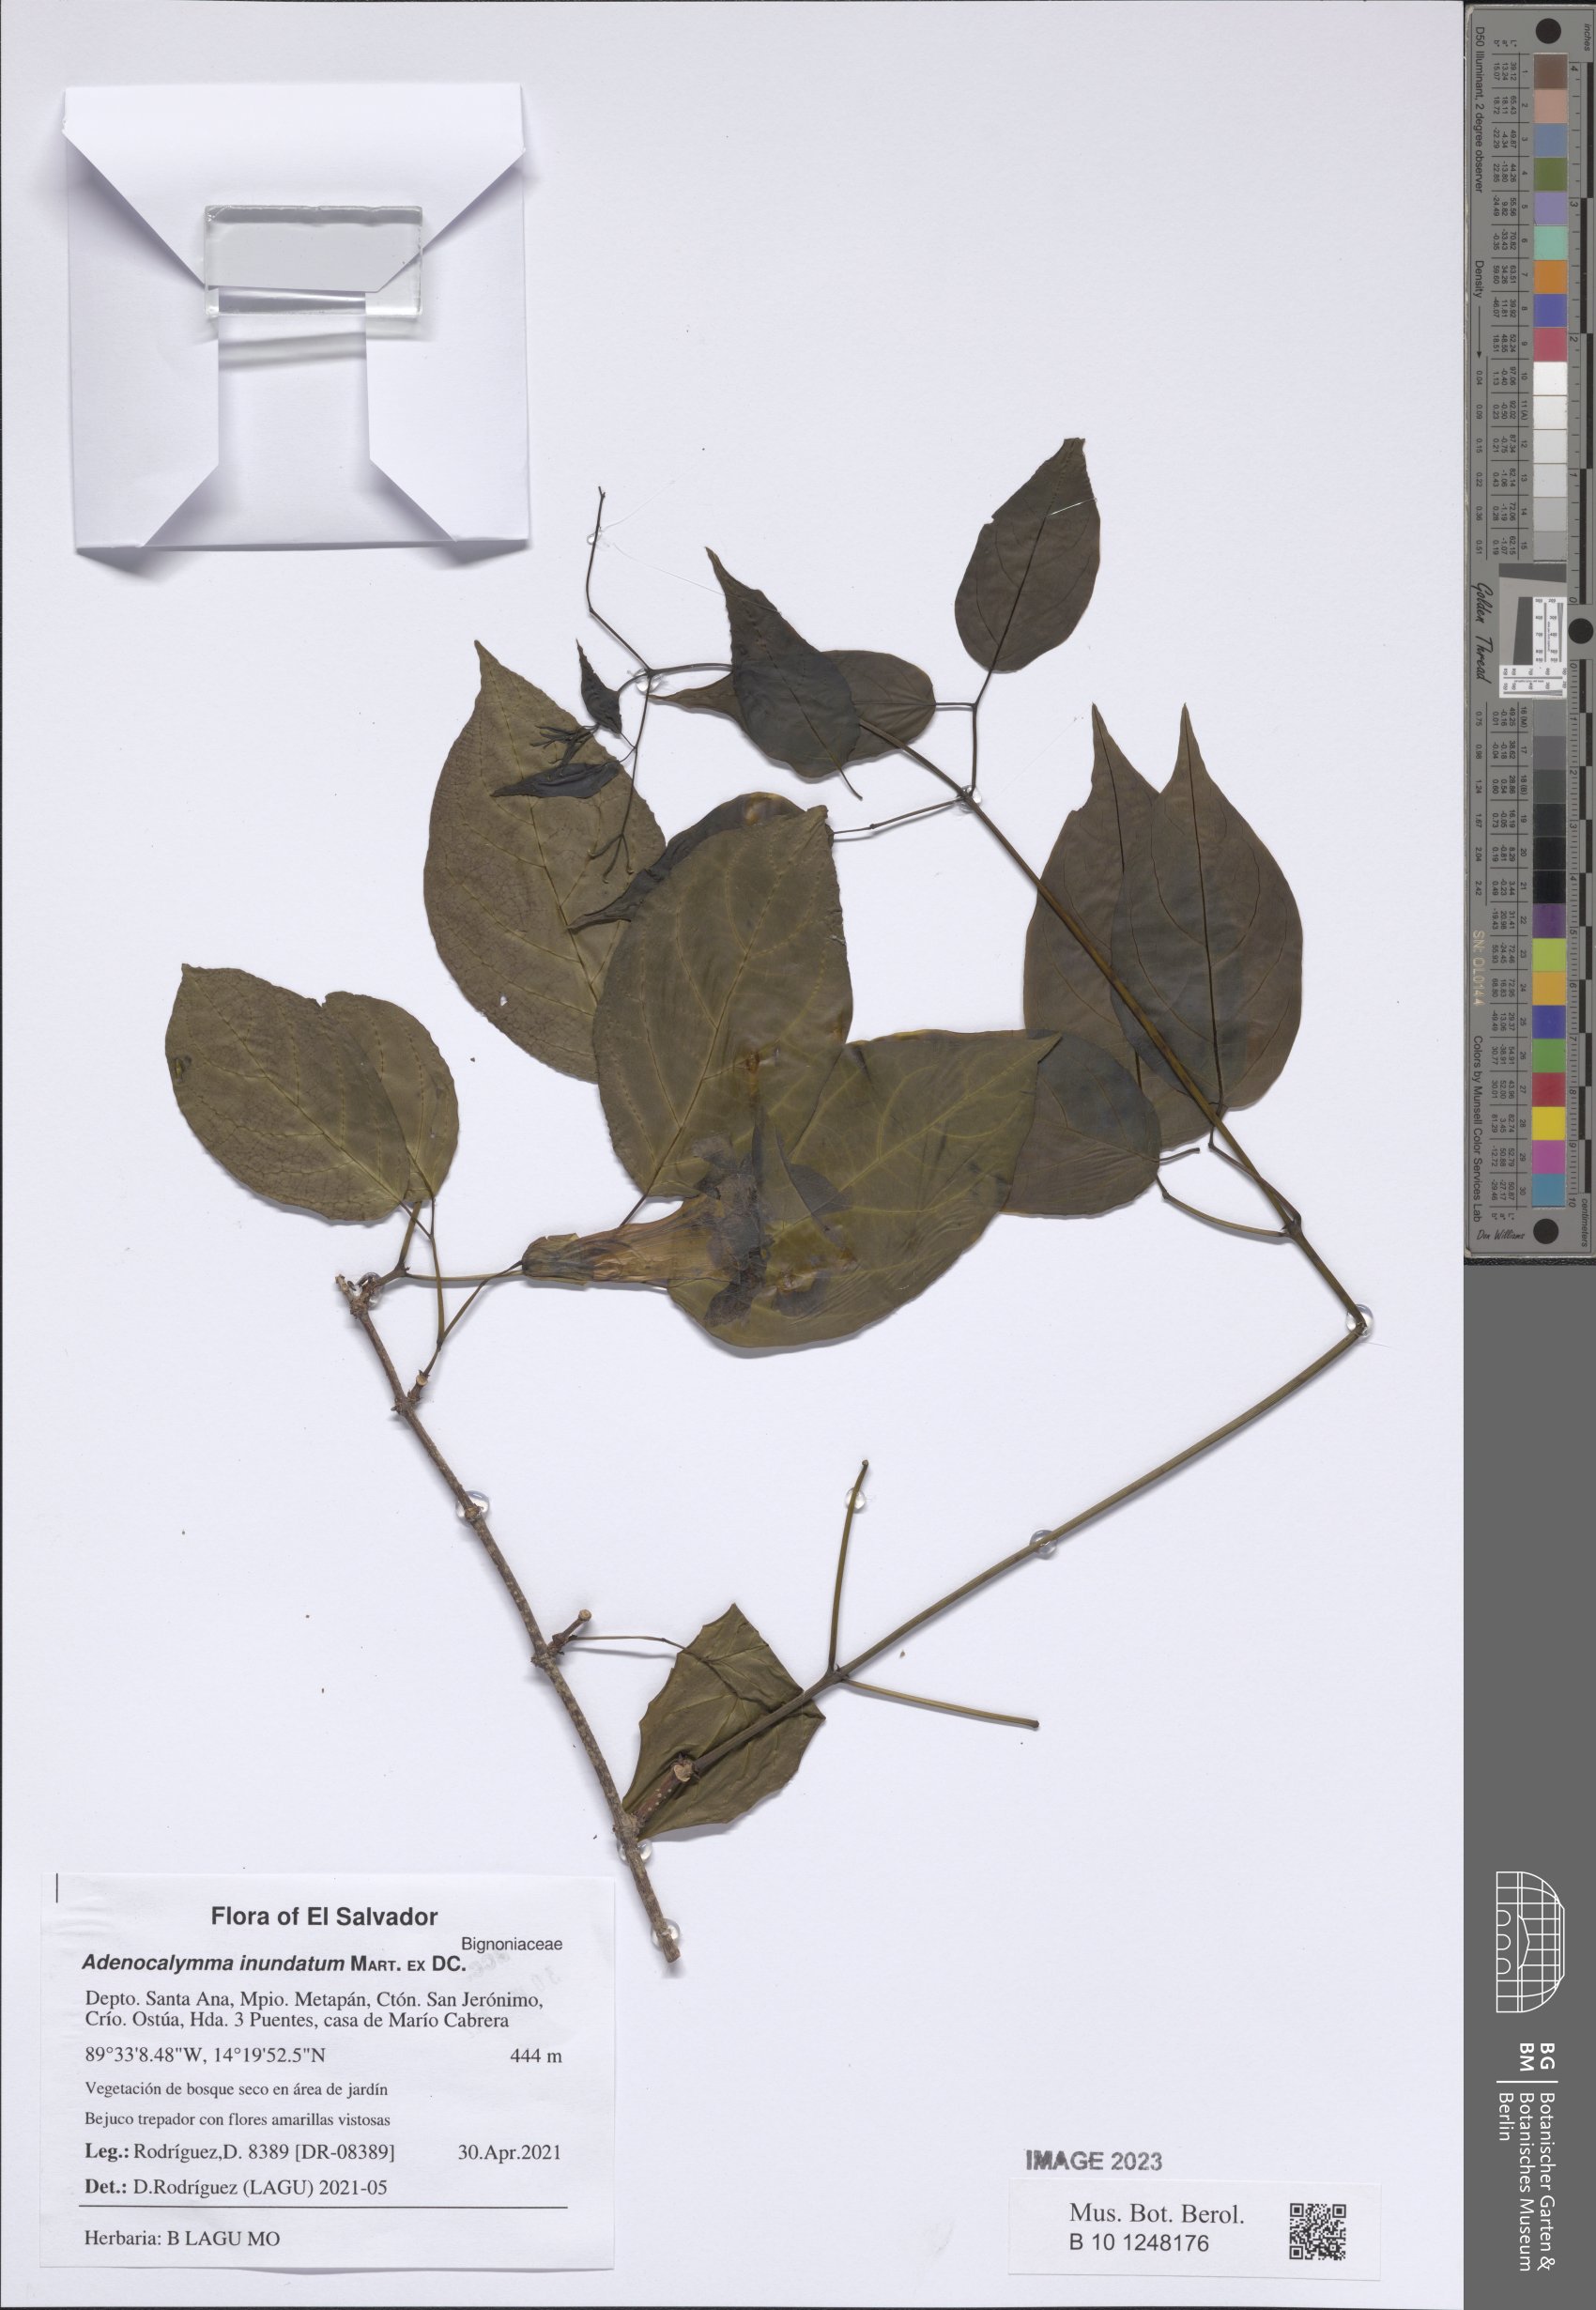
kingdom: Plantae
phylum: Tracheophyta
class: Magnoliopsida
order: Lamiales
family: Bignoniaceae
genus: Adenocalymma
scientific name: Adenocalymma inundatum
